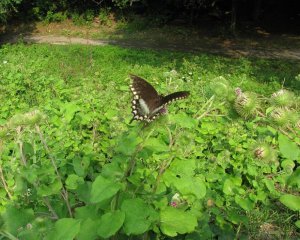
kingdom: Animalia
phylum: Arthropoda
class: Insecta
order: Lepidoptera
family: Papilionidae
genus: Pterourus
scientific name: Pterourus troilus
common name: Spicebush Swallowtail
